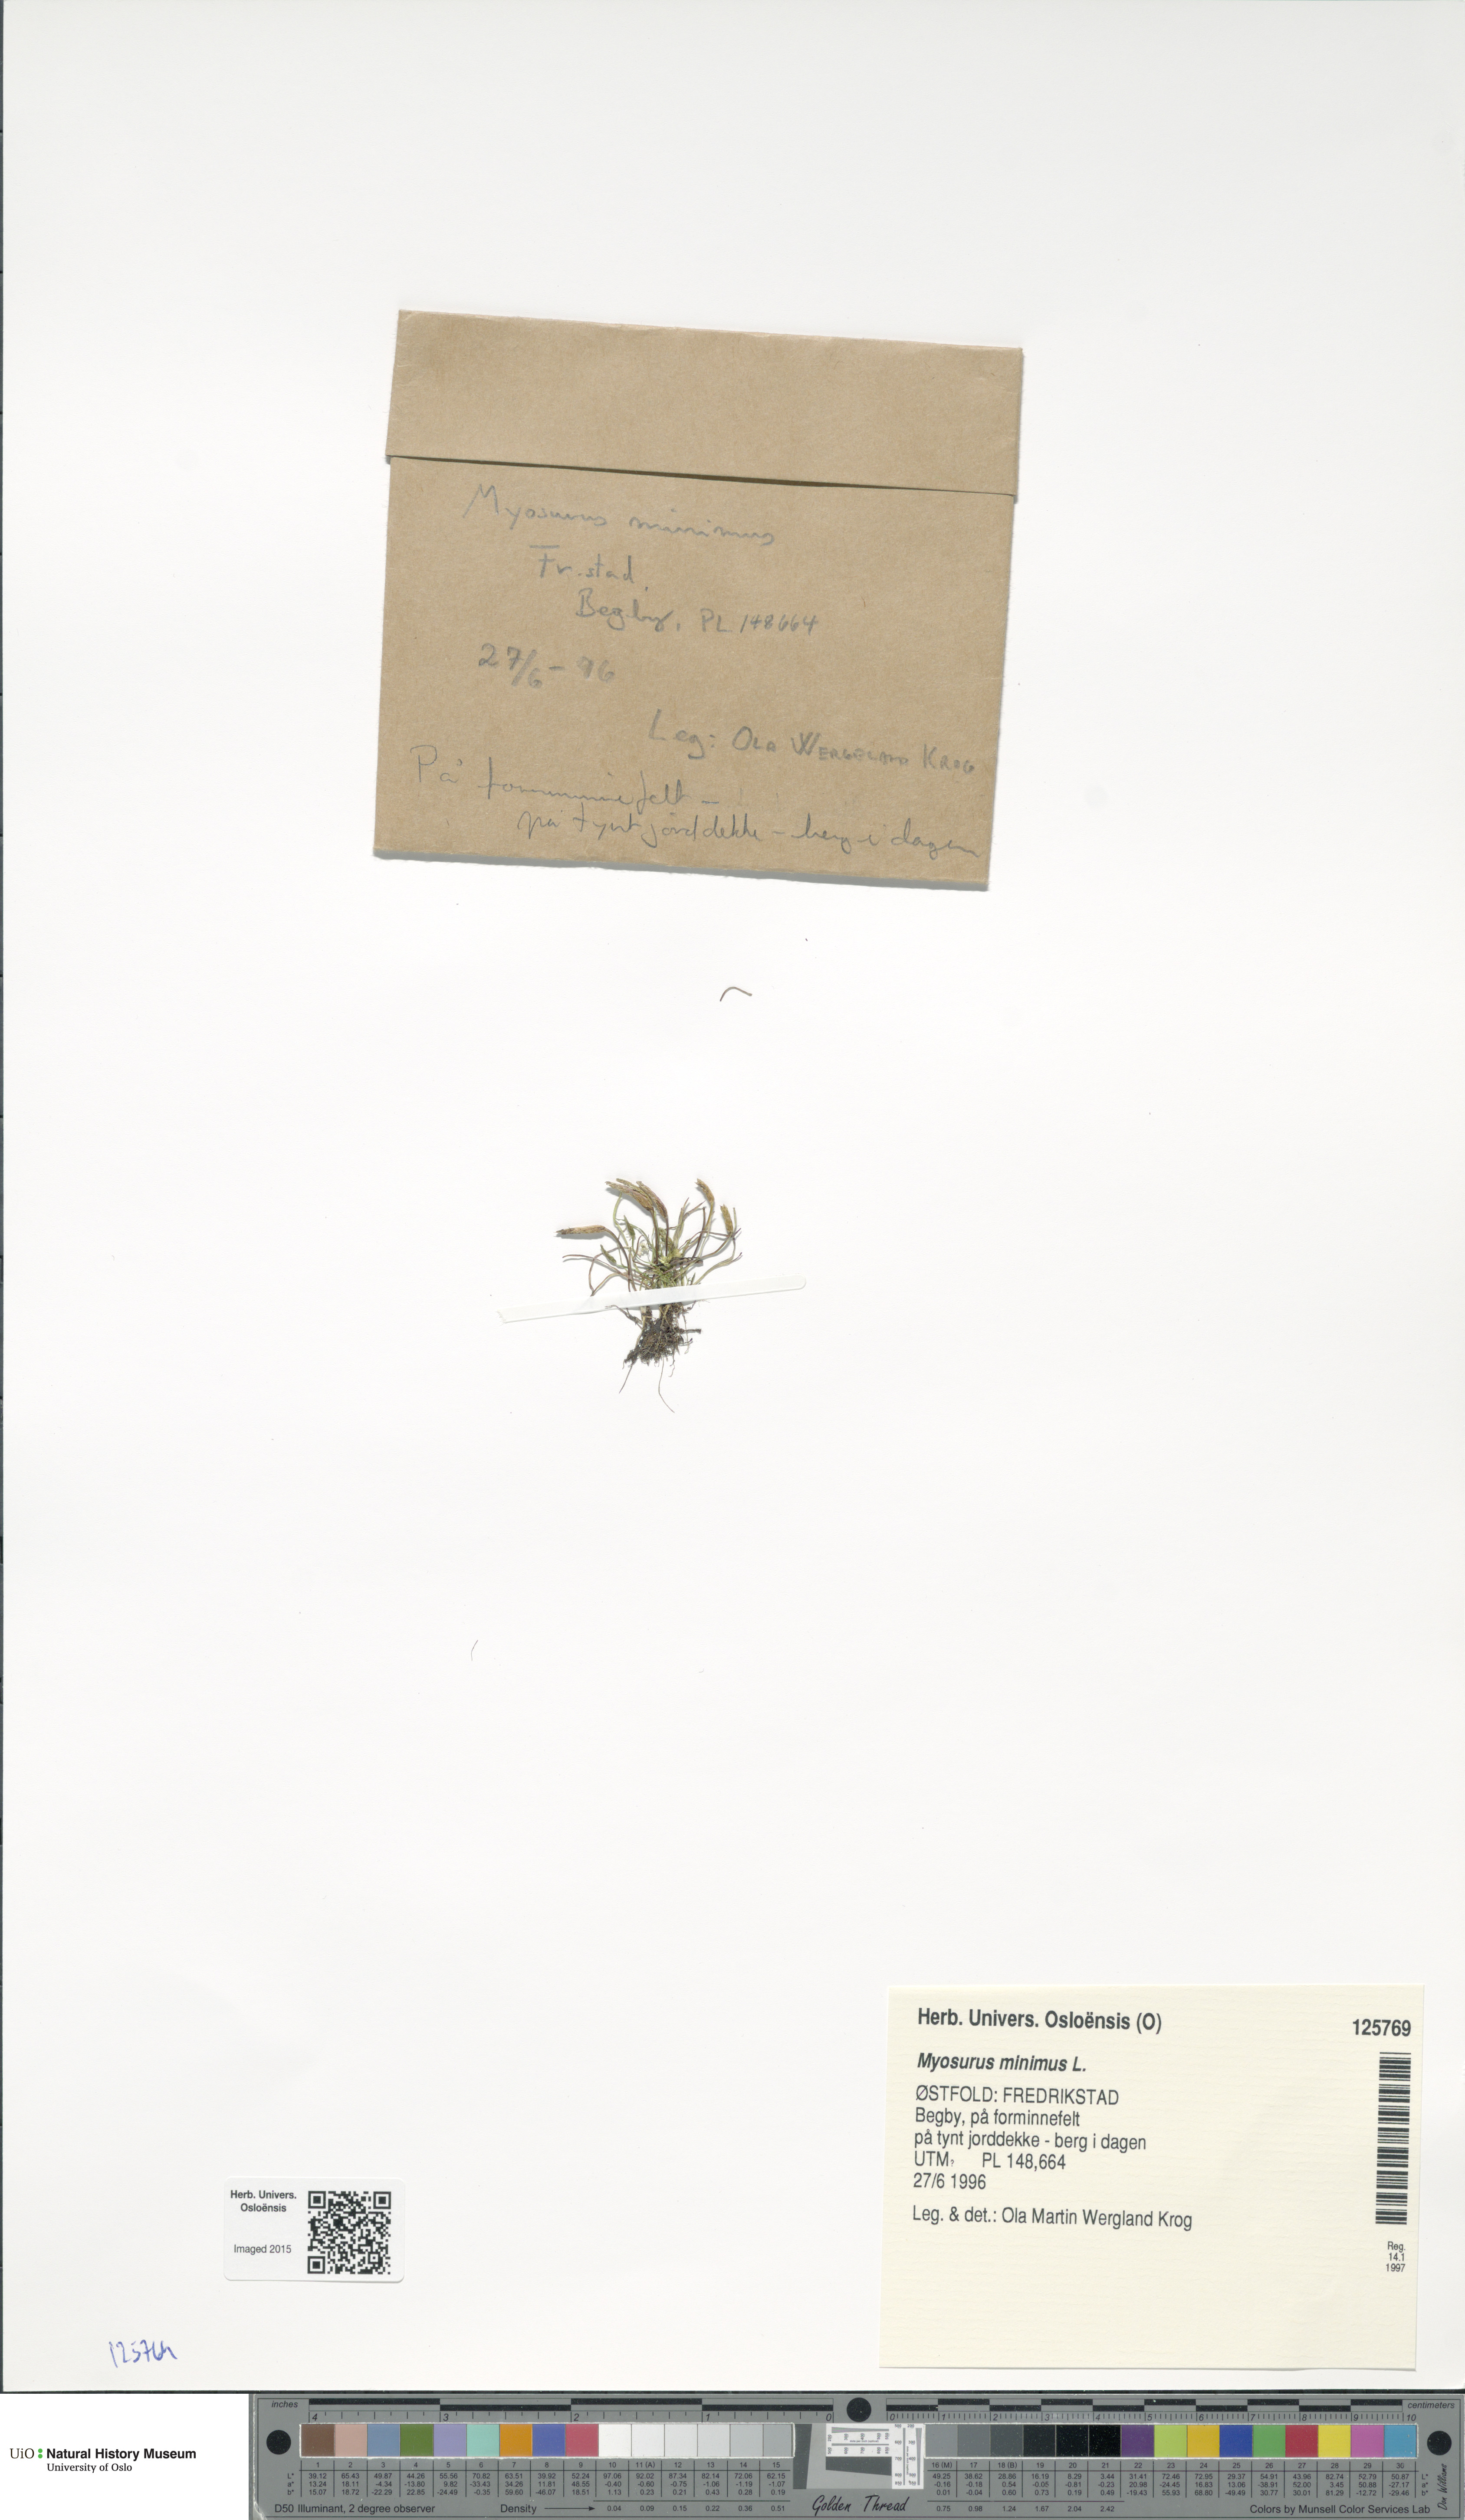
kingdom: Plantae
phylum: Tracheophyta
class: Magnoliopsida
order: Ranunculales
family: Ranunculaceae
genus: Myosurus
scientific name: Myosurus minimus
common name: Mousetail
